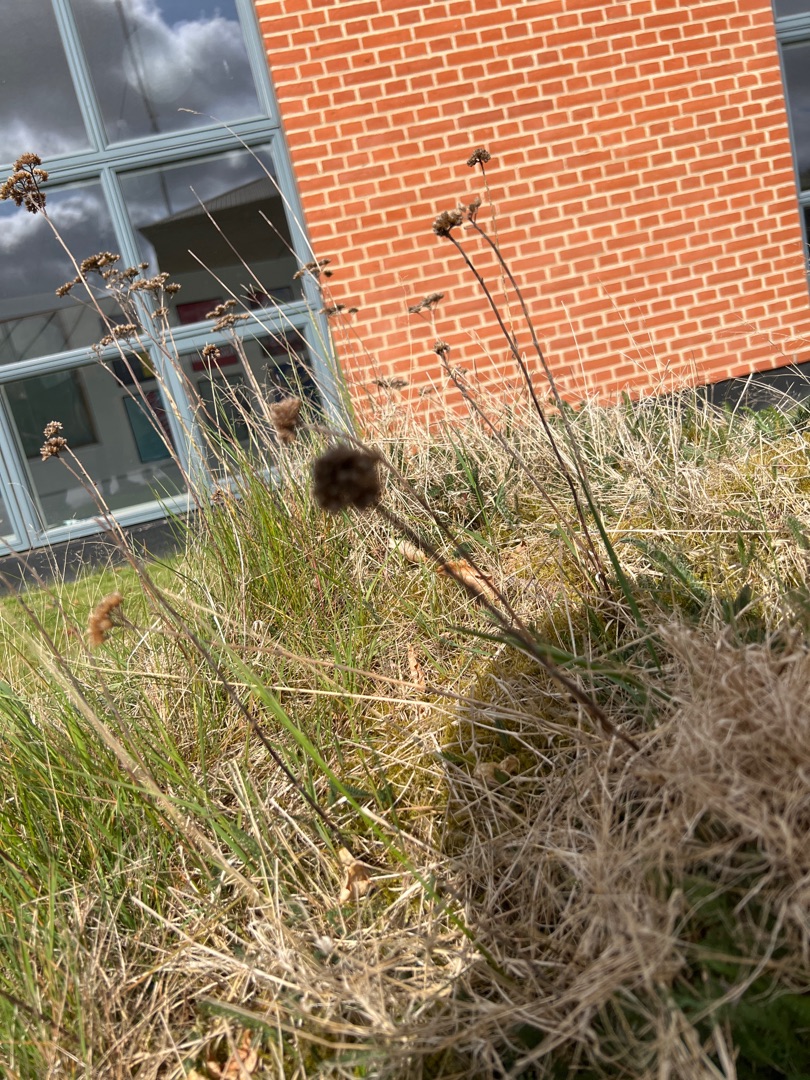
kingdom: Plantae
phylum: Tracheophyta
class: Magnoliopsida
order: Asterales
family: Asteraceae
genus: Achillea
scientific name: Achillea millefolium
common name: Almindelig røllike
